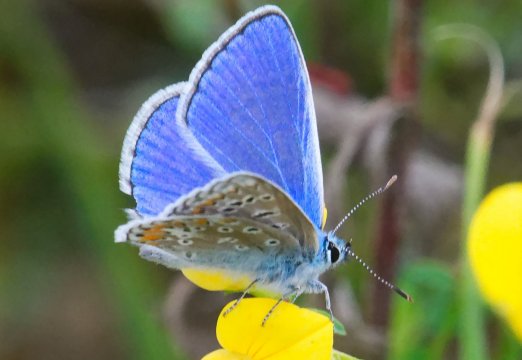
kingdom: Animalia
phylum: Arthropoda
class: Insecta
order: Lepidoptera
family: Lycaenidae
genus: Polyommatus
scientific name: Polyommatus icarus
